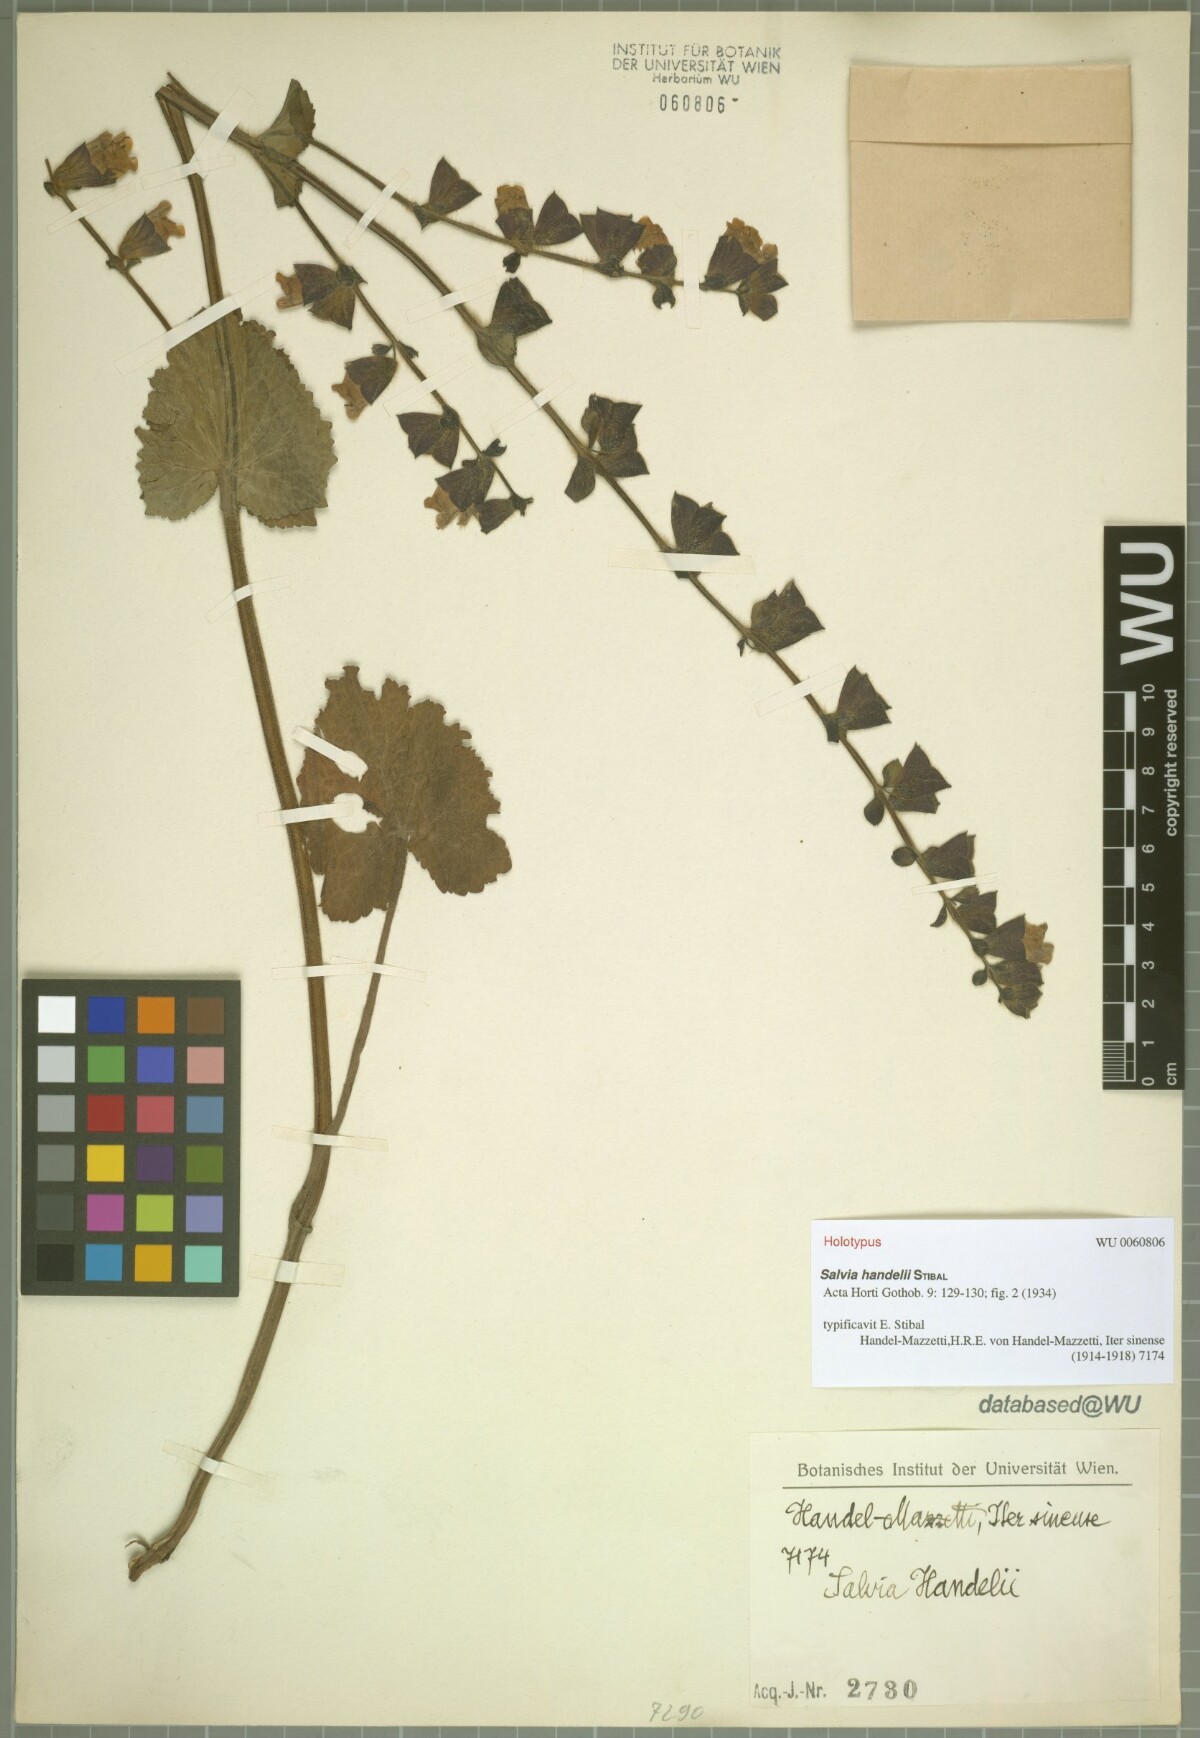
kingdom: Plantae
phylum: Tracheophyta
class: Magnoliopsida
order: Lamiales
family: Lamiaceae
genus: Salvia
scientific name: Salvia handelii
